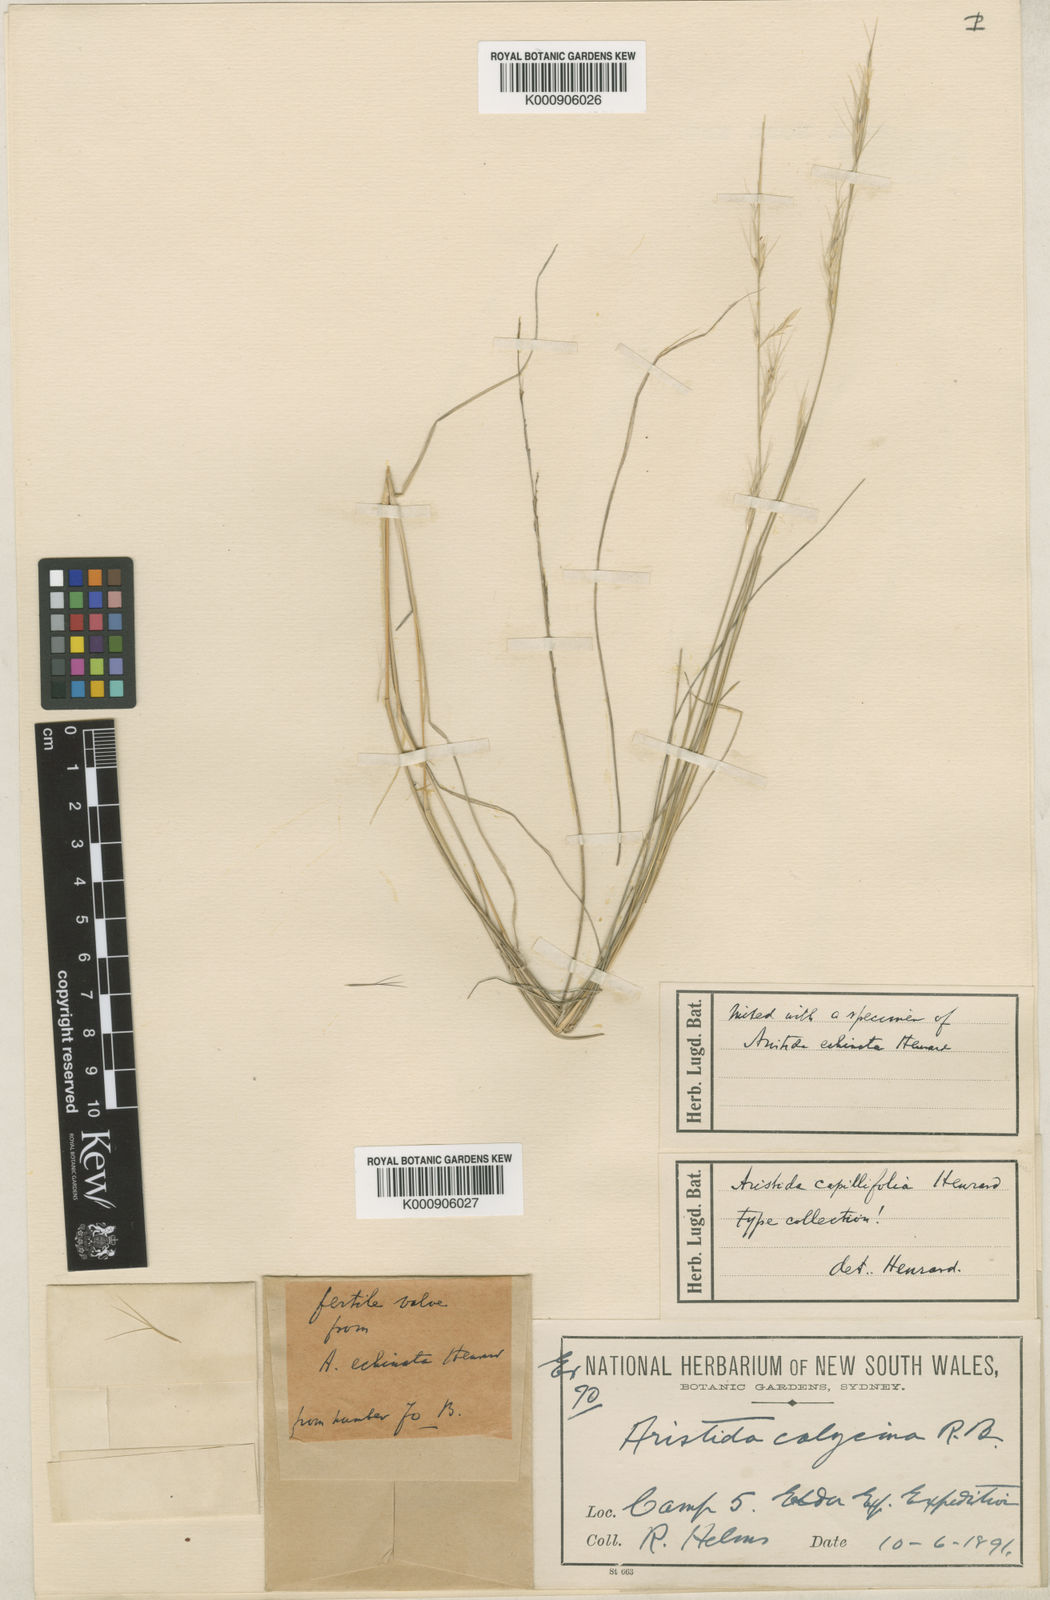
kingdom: Plantae
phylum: Tracheophyta
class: Liliopsida
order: Poales
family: Poaceae
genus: Aristida
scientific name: Aristida capillifolia
